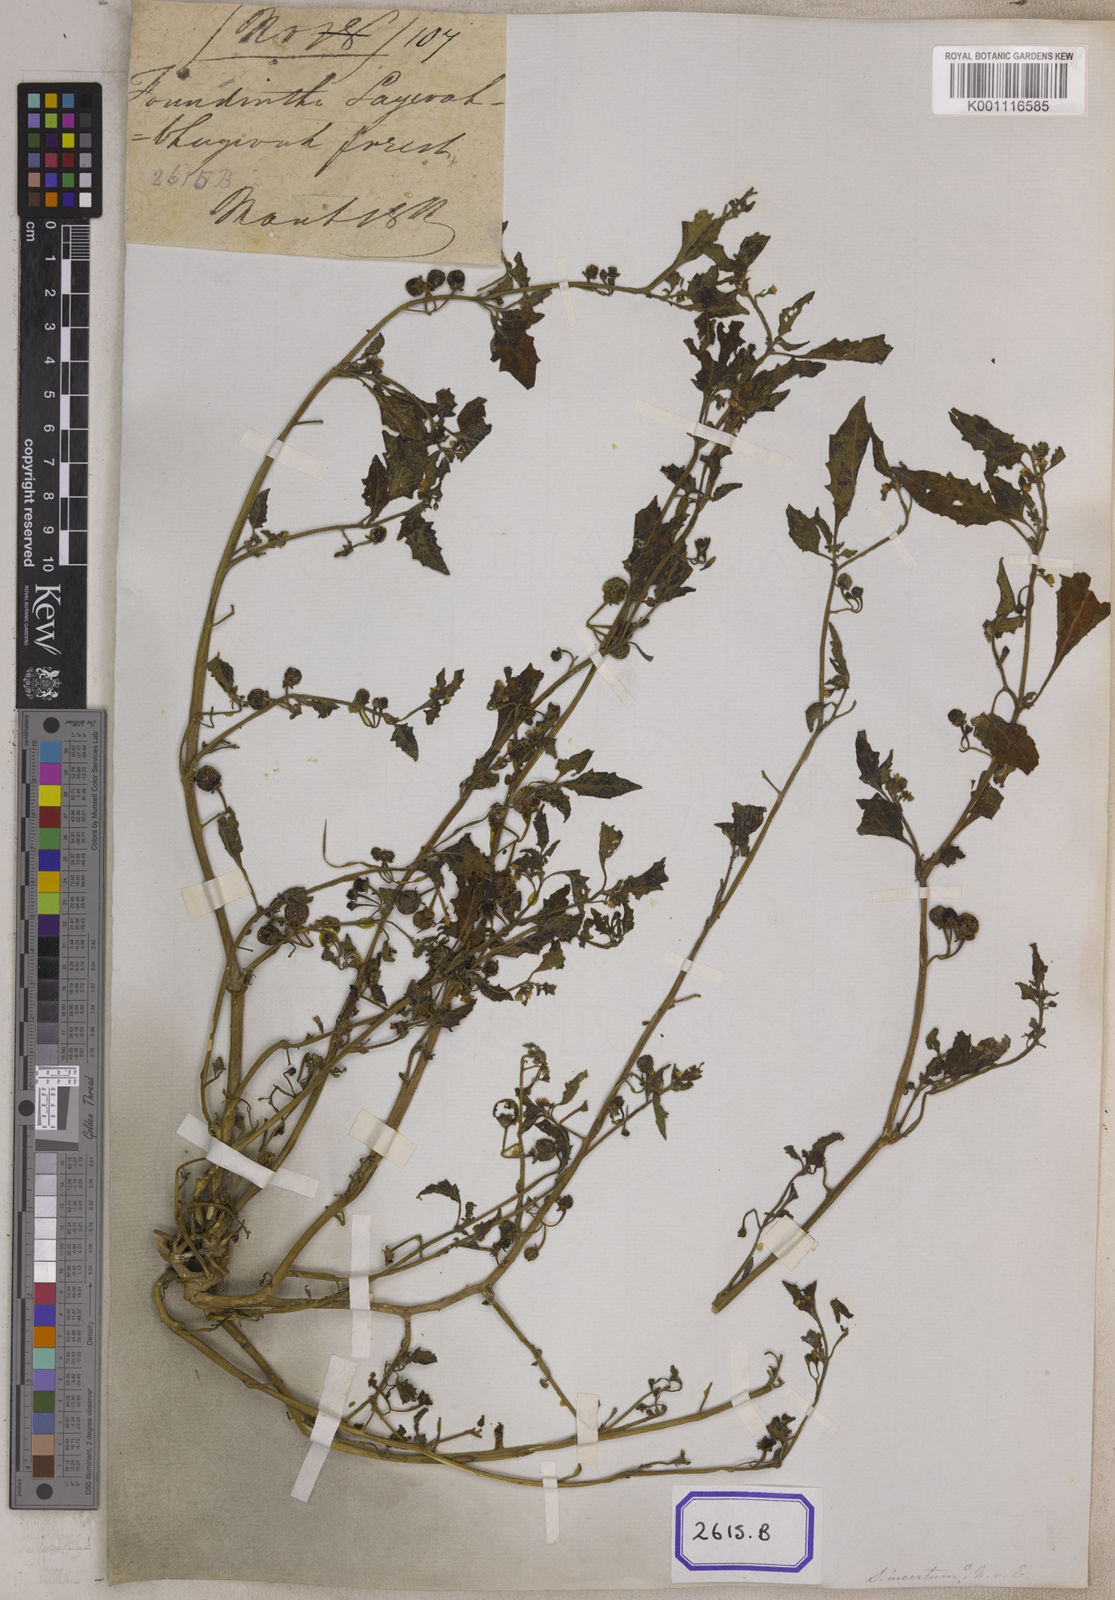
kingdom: Plantae
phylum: Tracheophyta
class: Magnoliopsida
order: Solanales
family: Solanaceae
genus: Solanum
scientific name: Solanum nigrum
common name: Black nightshade
